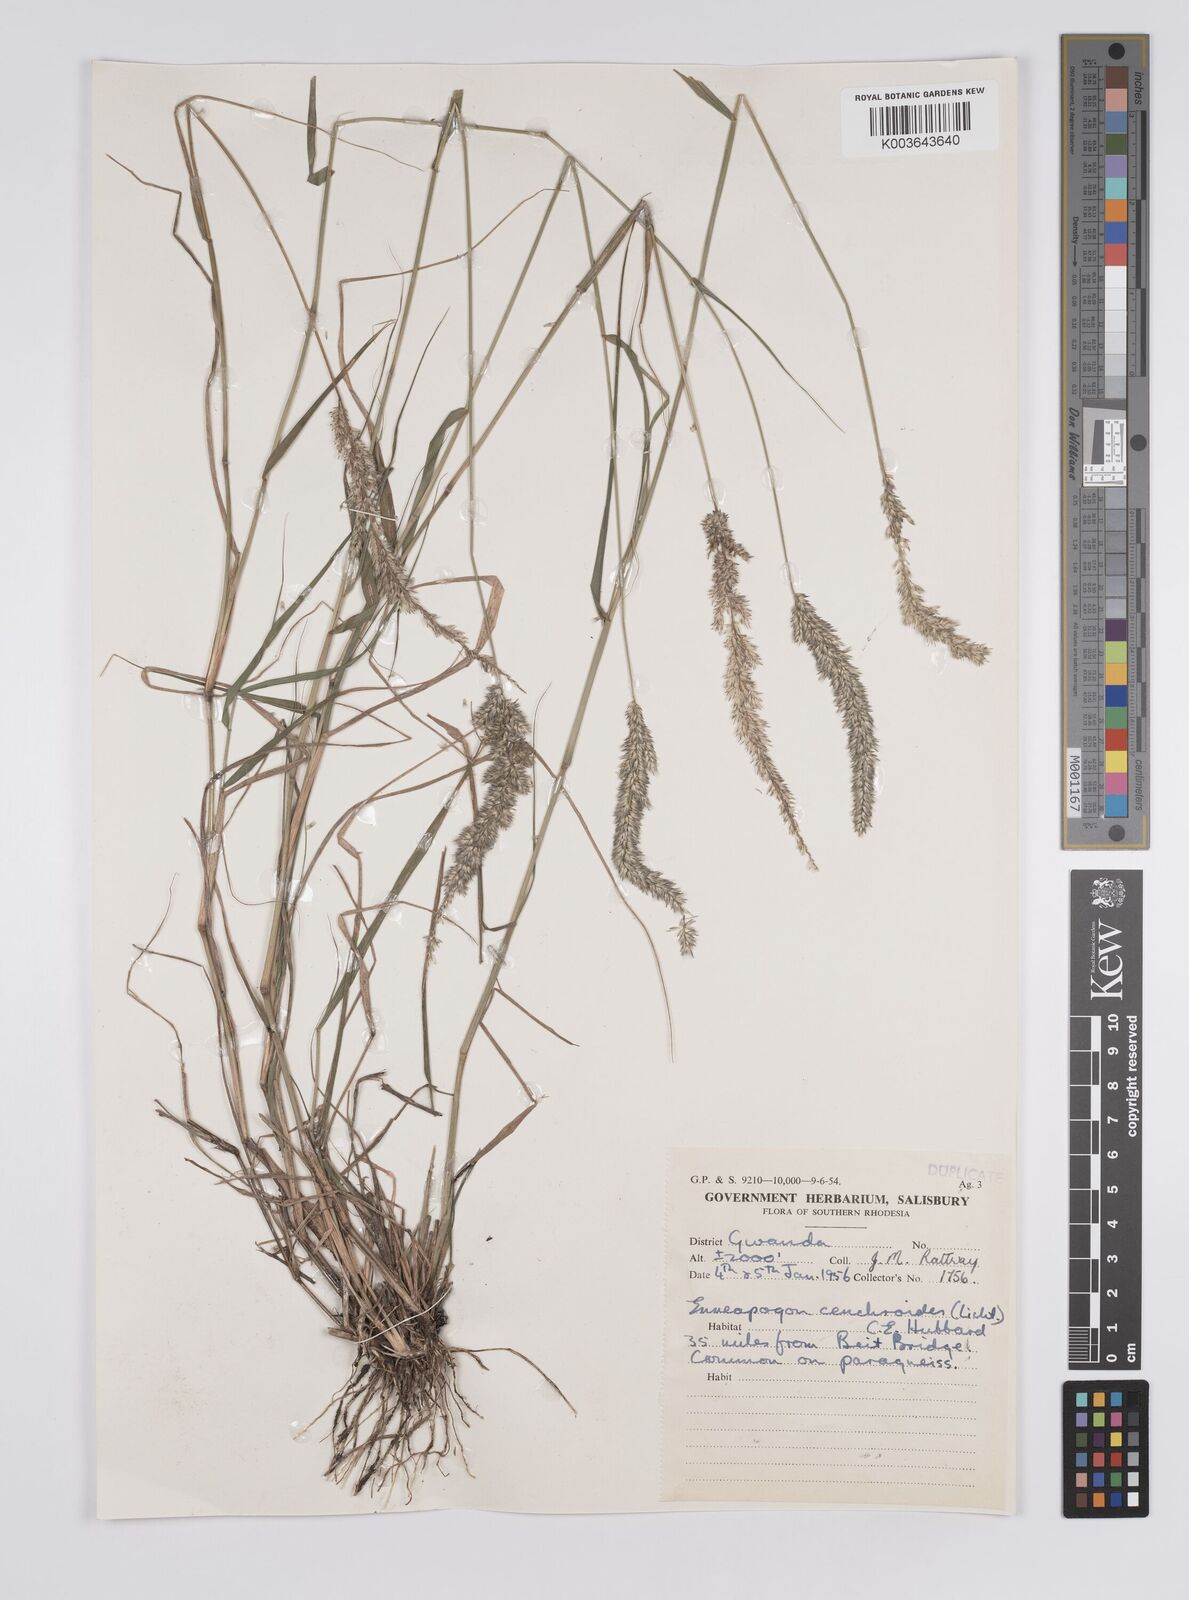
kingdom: Plantae
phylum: Tracheophyta
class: Liliopsida
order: Poales
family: Poaceae
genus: Enneapogon
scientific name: Enneapogon cenchroides
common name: Soft feather pappusgrass
